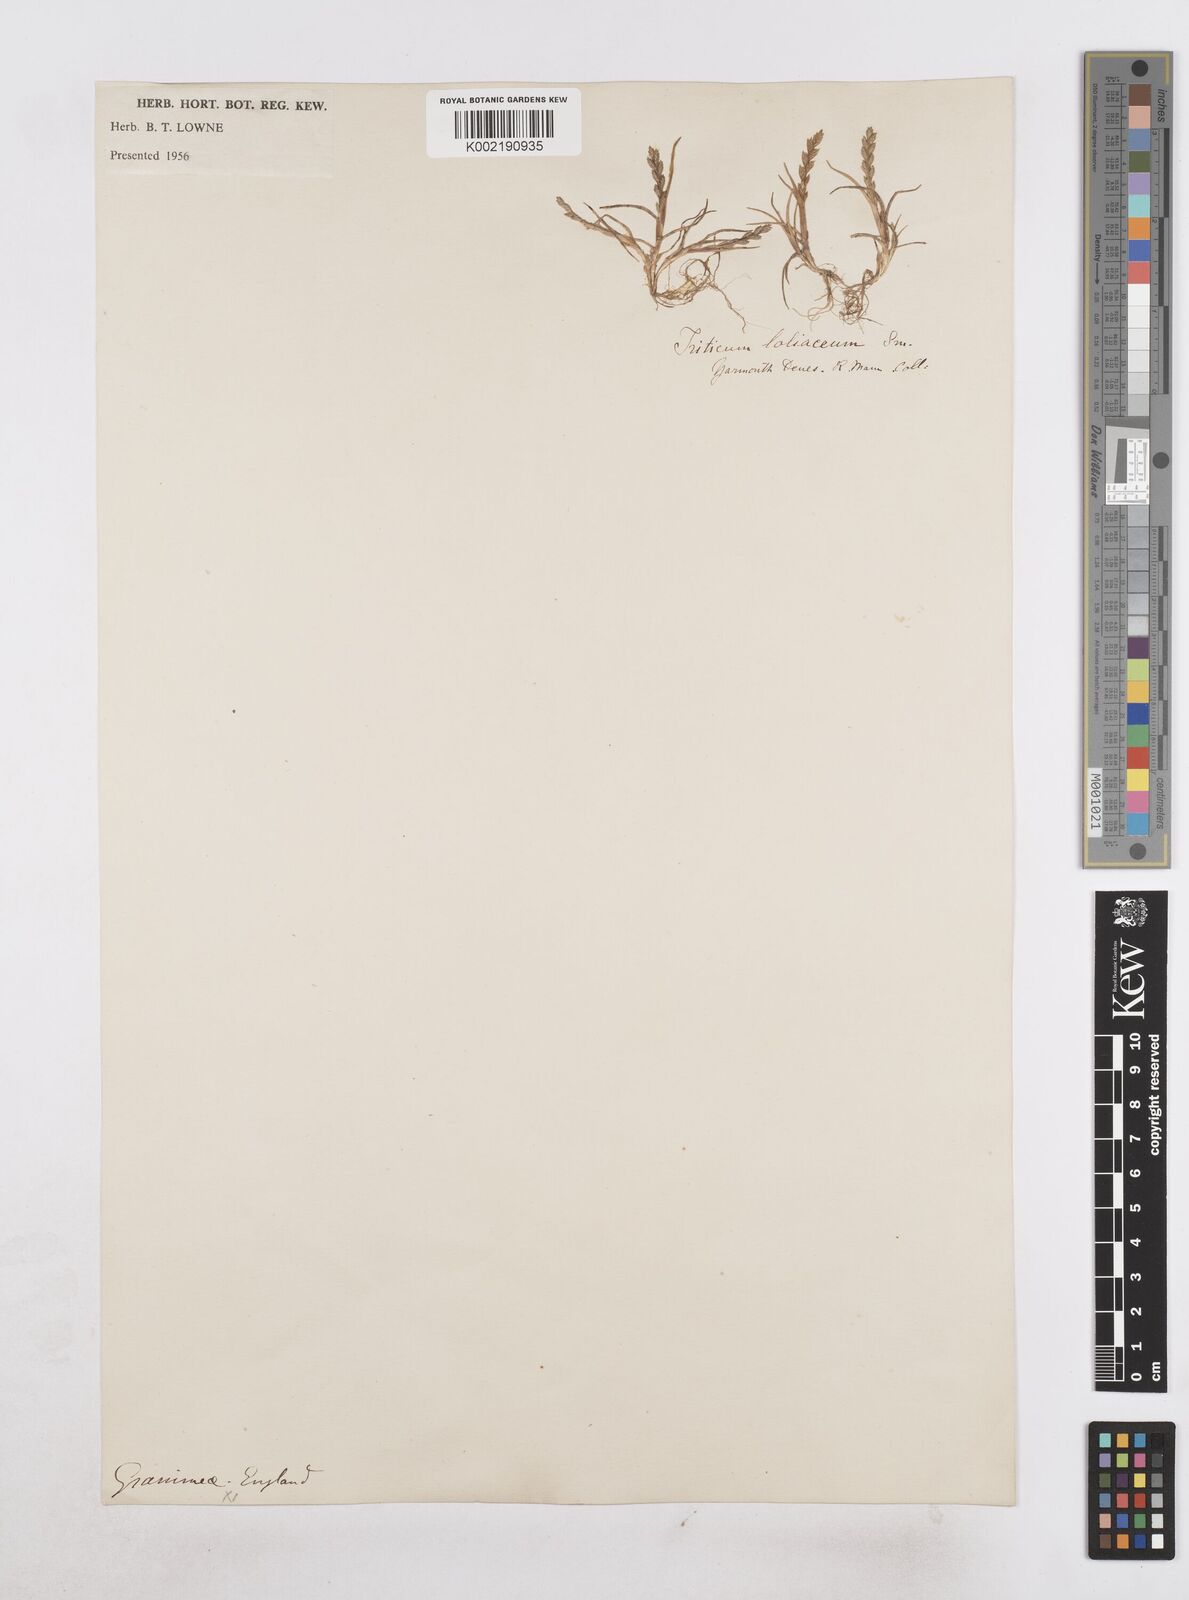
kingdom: Plantae
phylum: Tracheophyta
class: Liliopsida
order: Poales
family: Poaceae
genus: Catapodium
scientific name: Catapodium marinum
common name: Sea fern-grass
